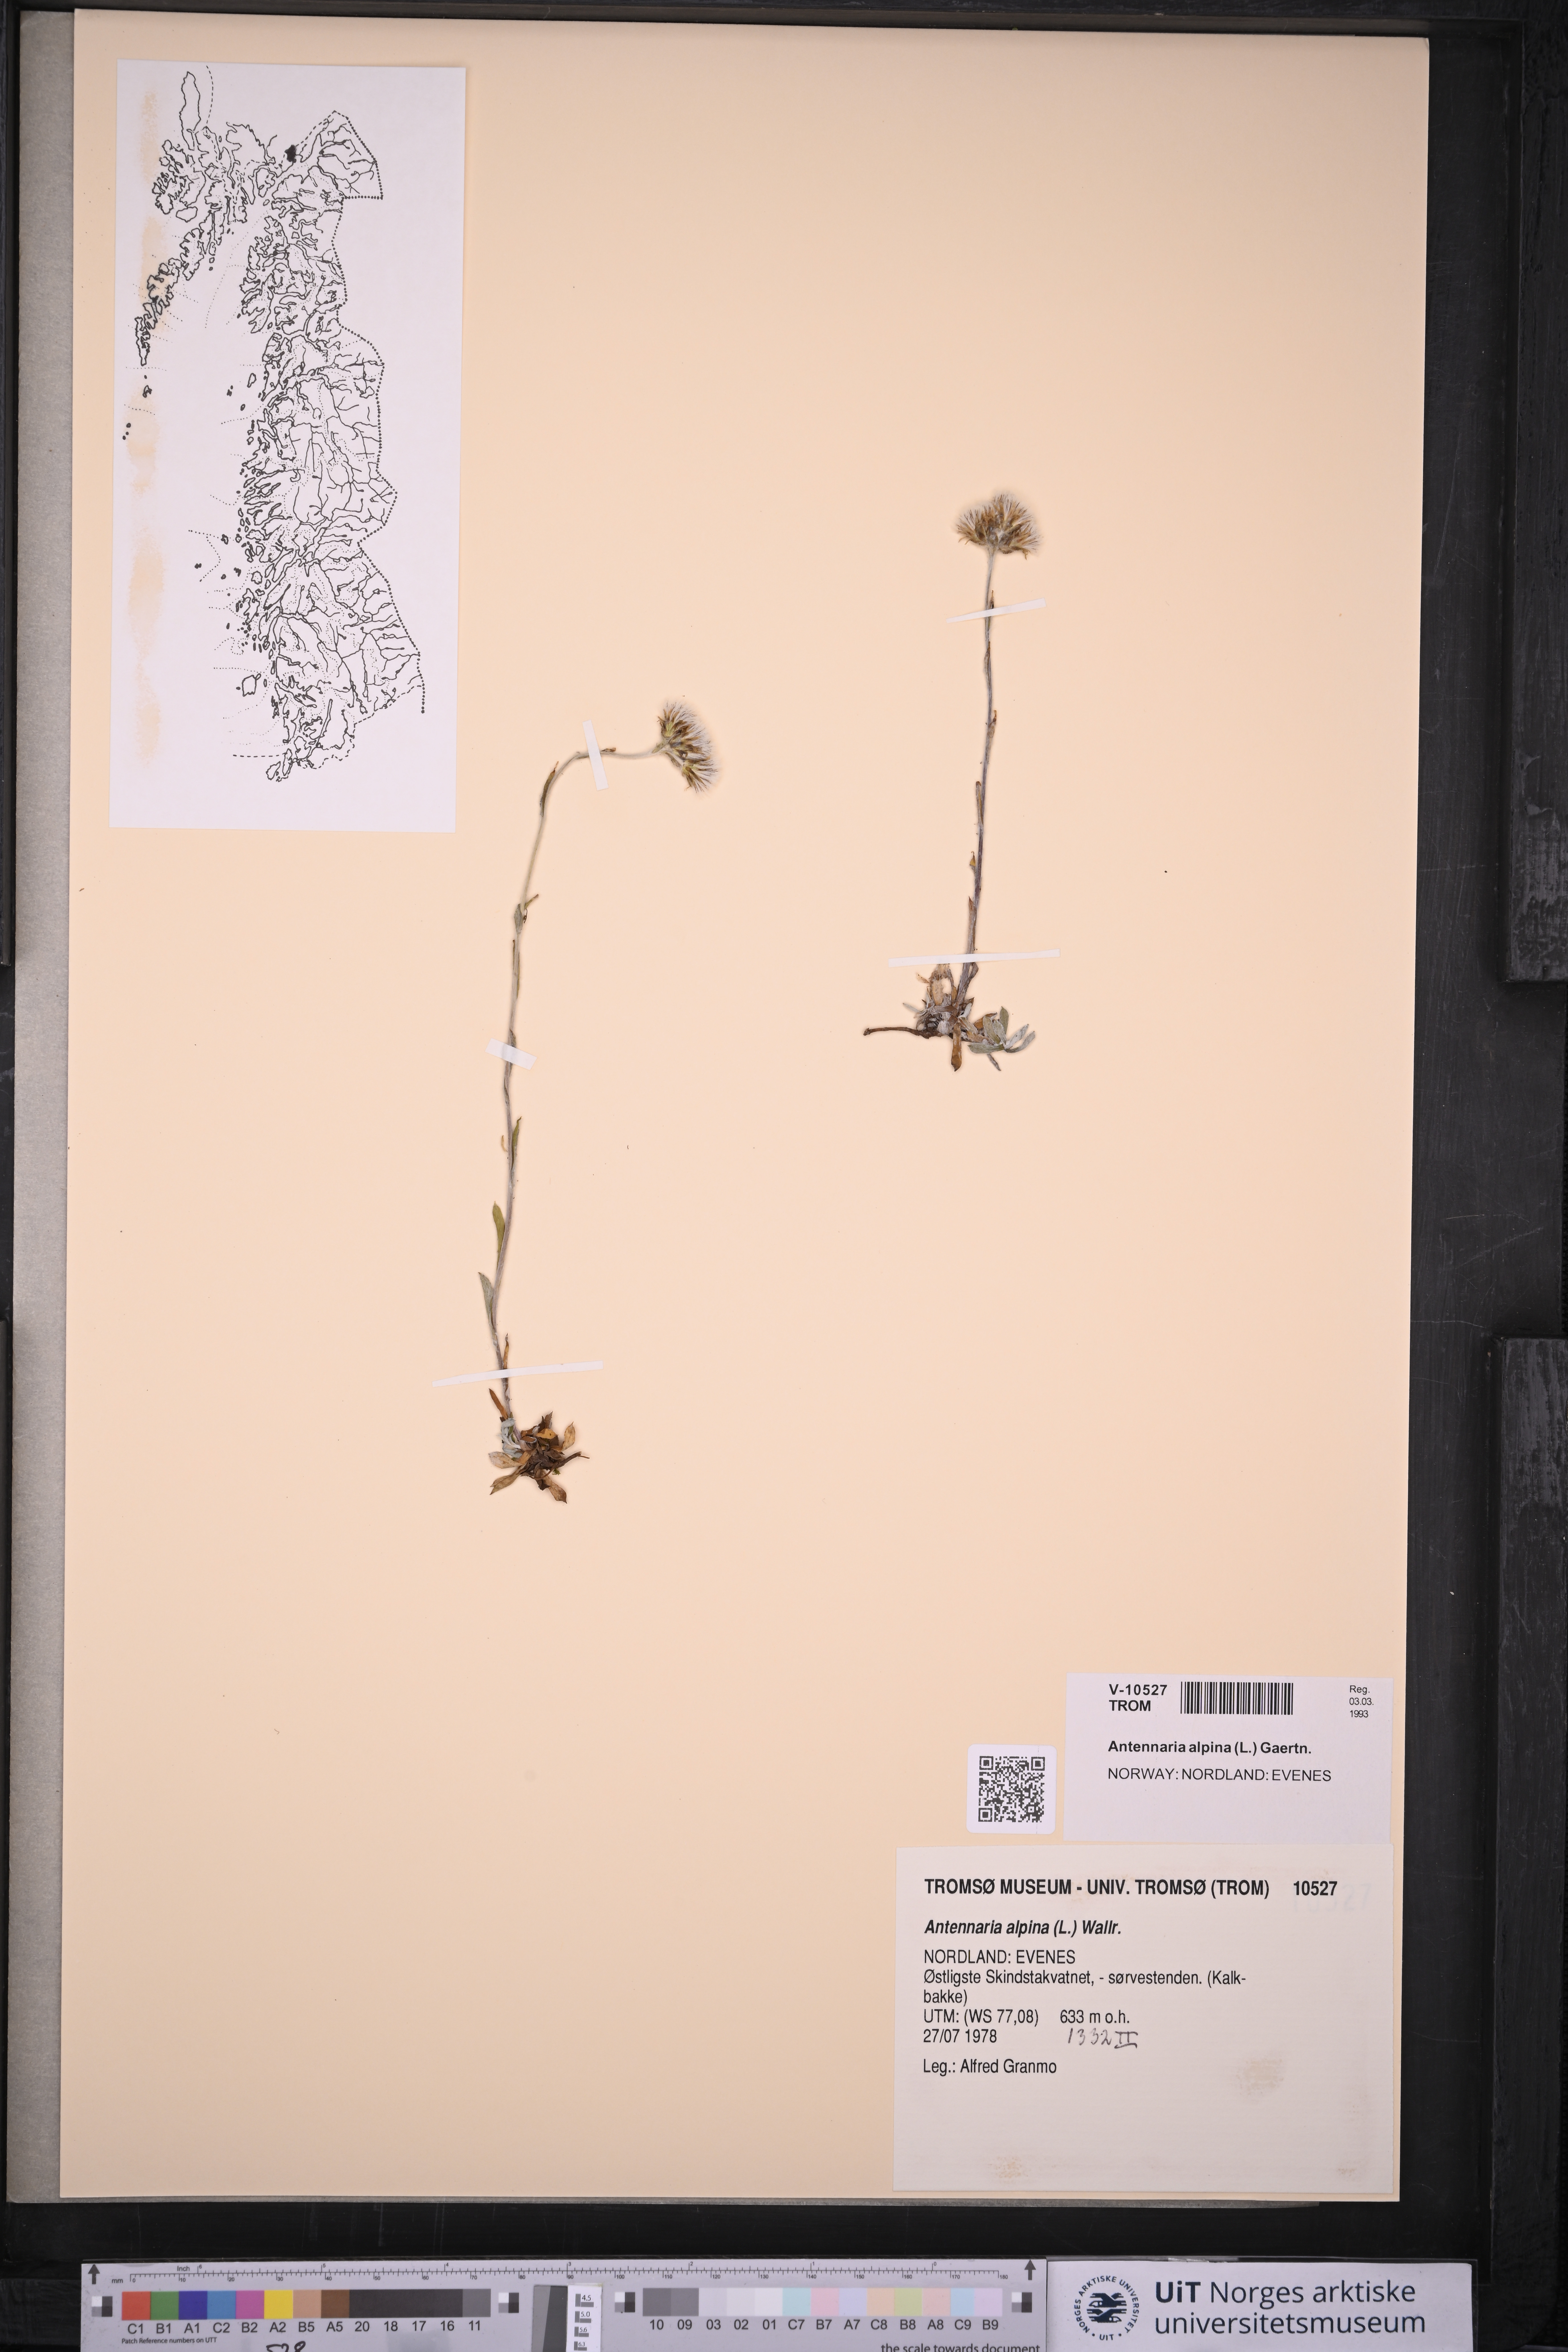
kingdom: Plantae
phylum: Tracheophyta
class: Magnoliopsida
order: Asterales
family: Asteraceae
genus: Antennaria
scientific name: Antennaria alpina
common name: Alpine pussytoes
